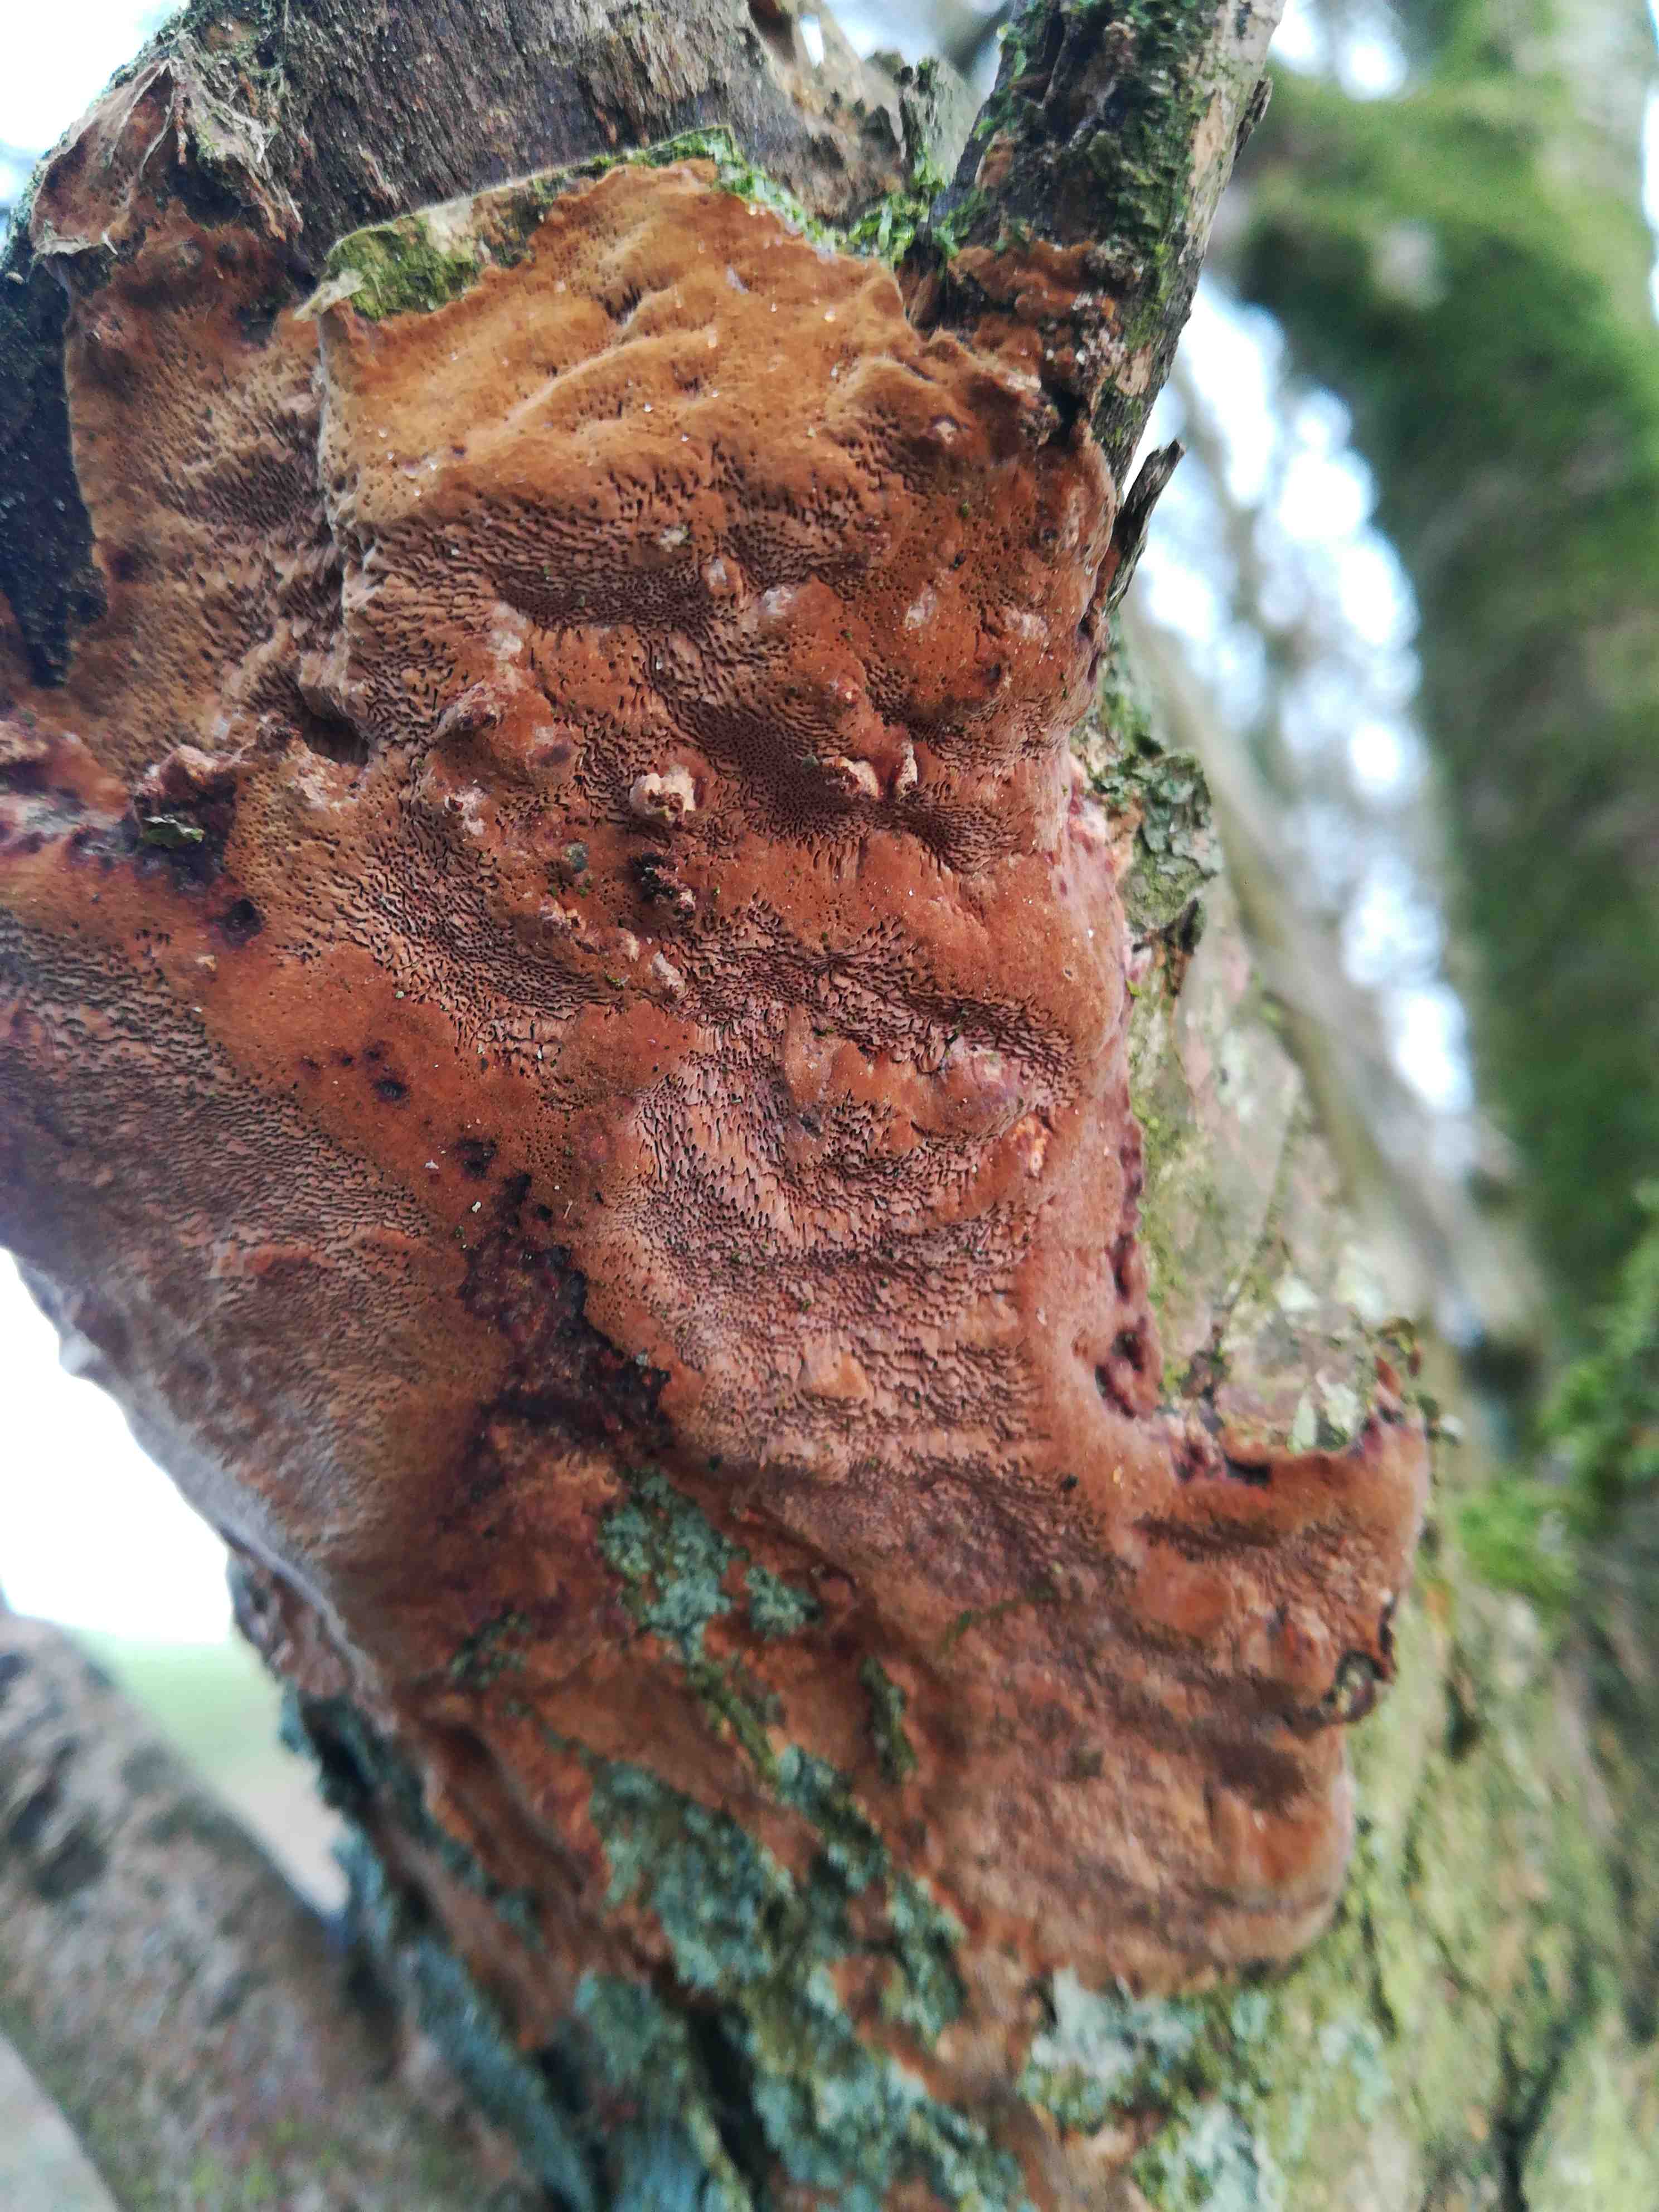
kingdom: Fungi
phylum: Basidiomycota
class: Agaricomycetes
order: Hymenochaetales
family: Hymenochaetaceae
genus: Fuscoporia
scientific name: Fuscoporia ferrea
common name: skorpe-ildporesvamp
